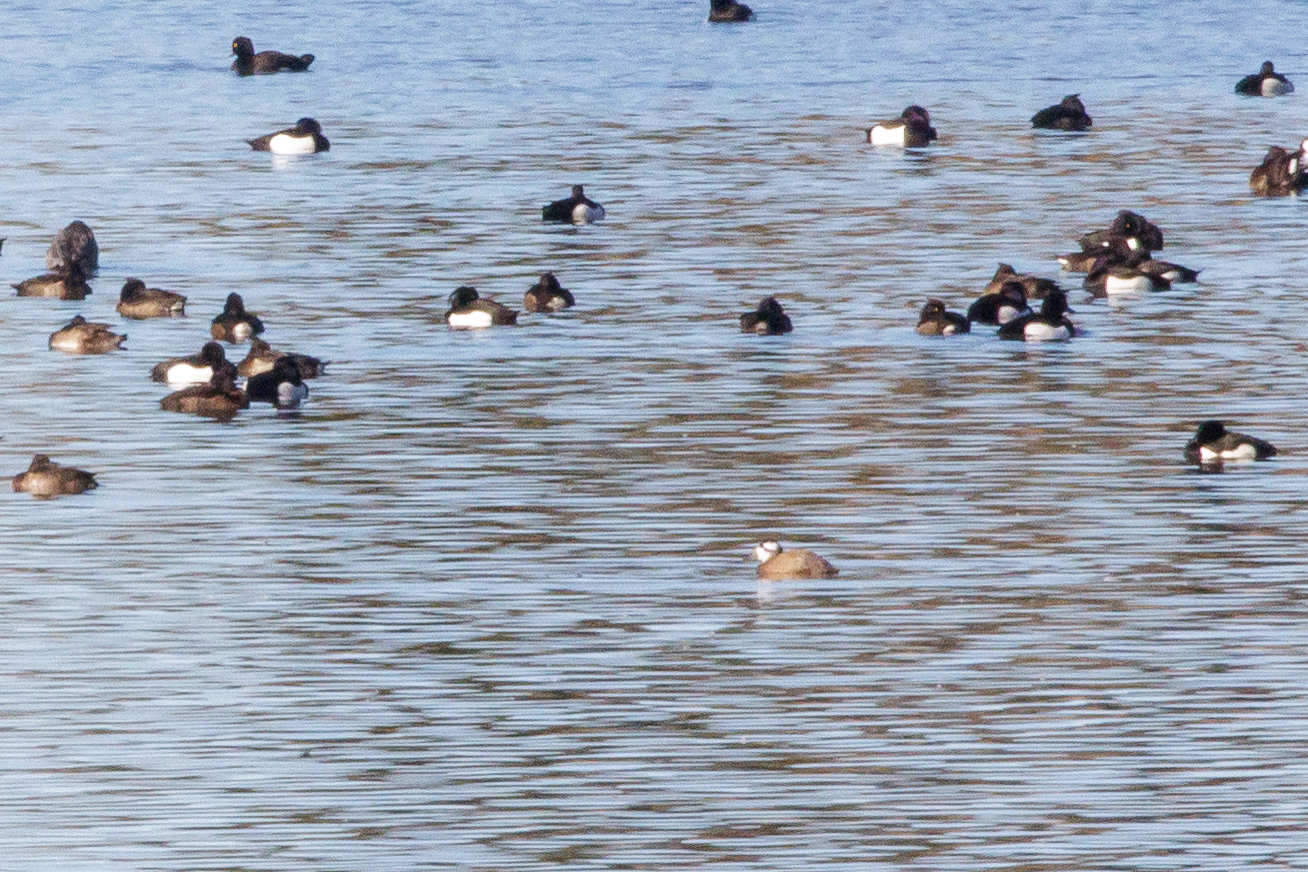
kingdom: Animalia
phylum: Chordata
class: Aves
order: Anseriformes
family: Anatidae
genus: Oxyura
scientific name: Oxyura leucocephala
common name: Hvidhovedet skarveand
